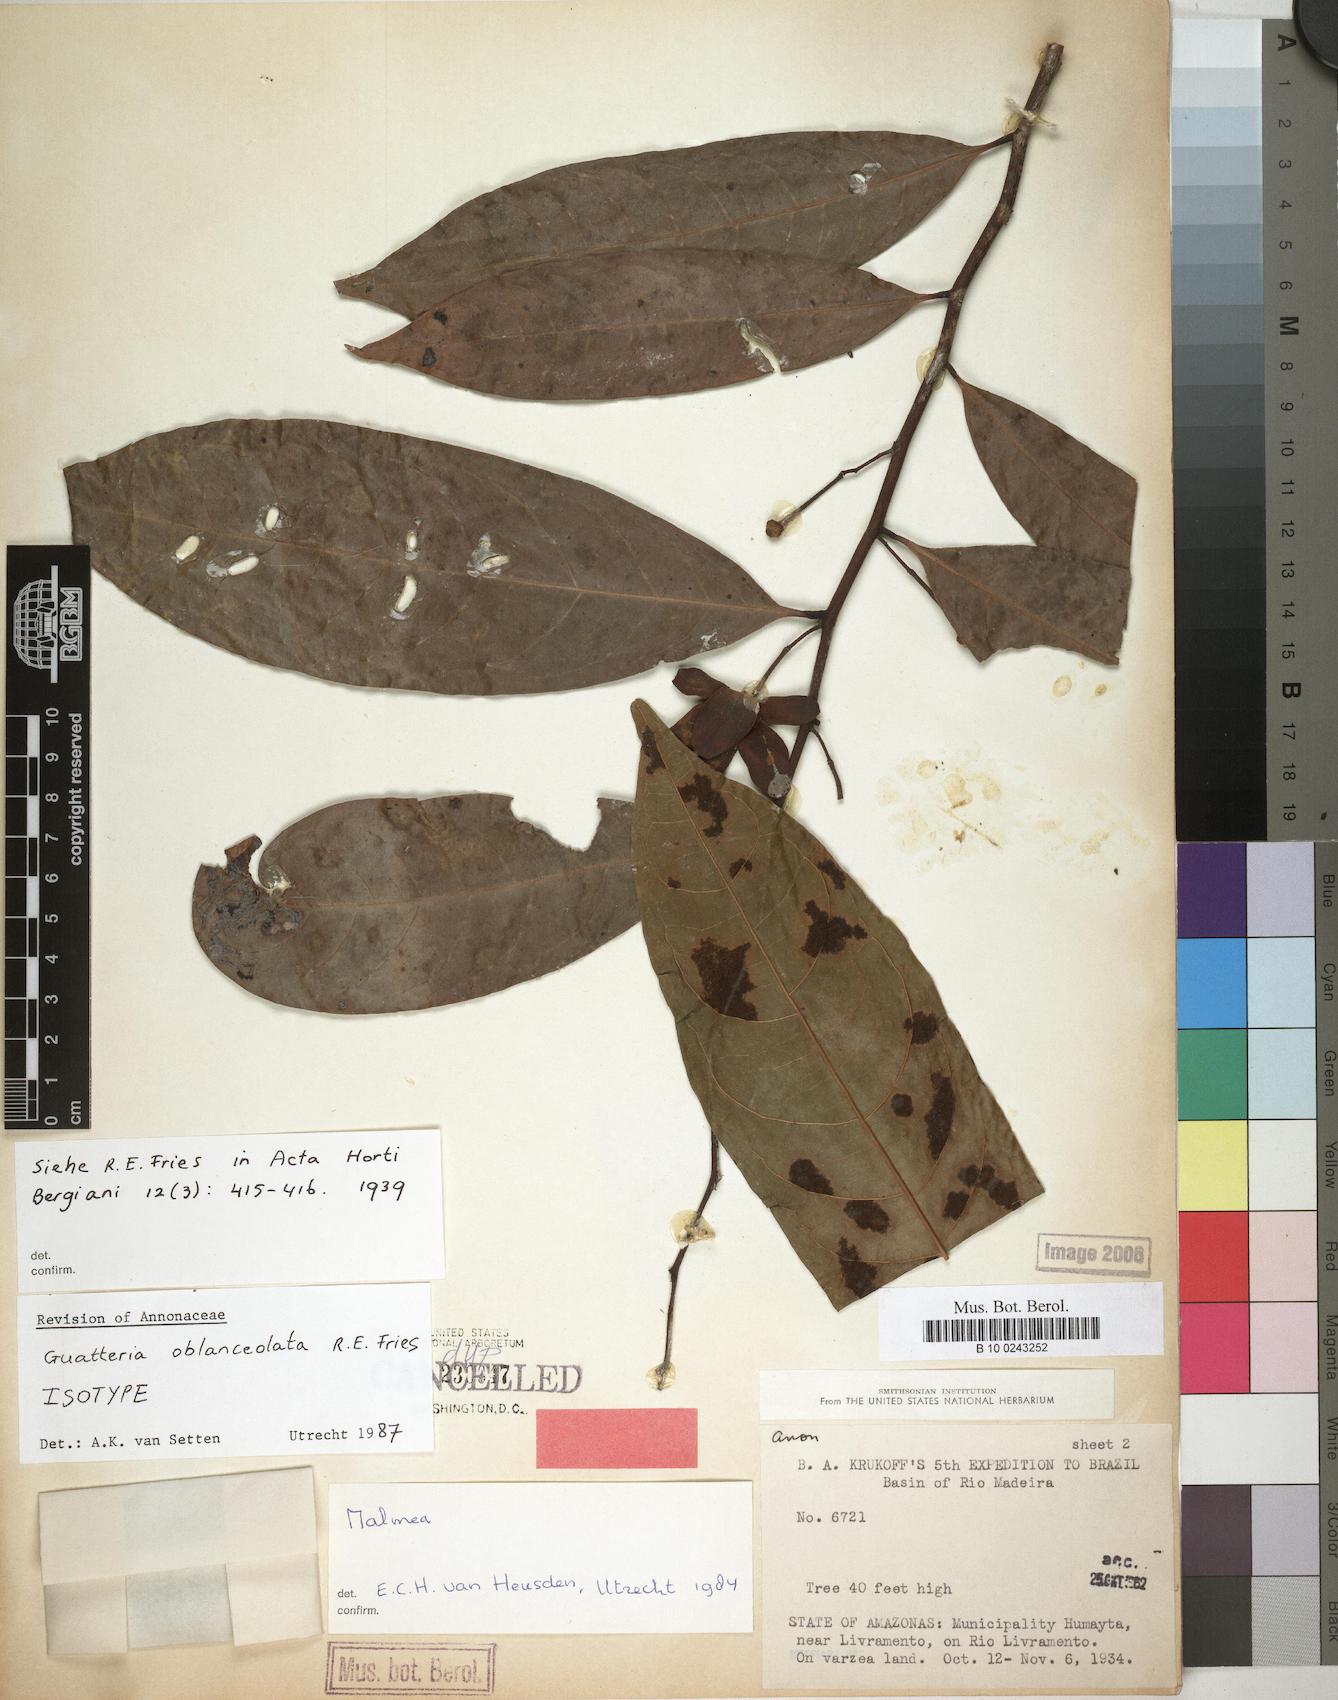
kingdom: Plantae
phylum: Tracheophyta
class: Magnoliopsida
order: Magnoliales
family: Annonaceae
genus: Guatteria
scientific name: Guatteria oblanceolata
